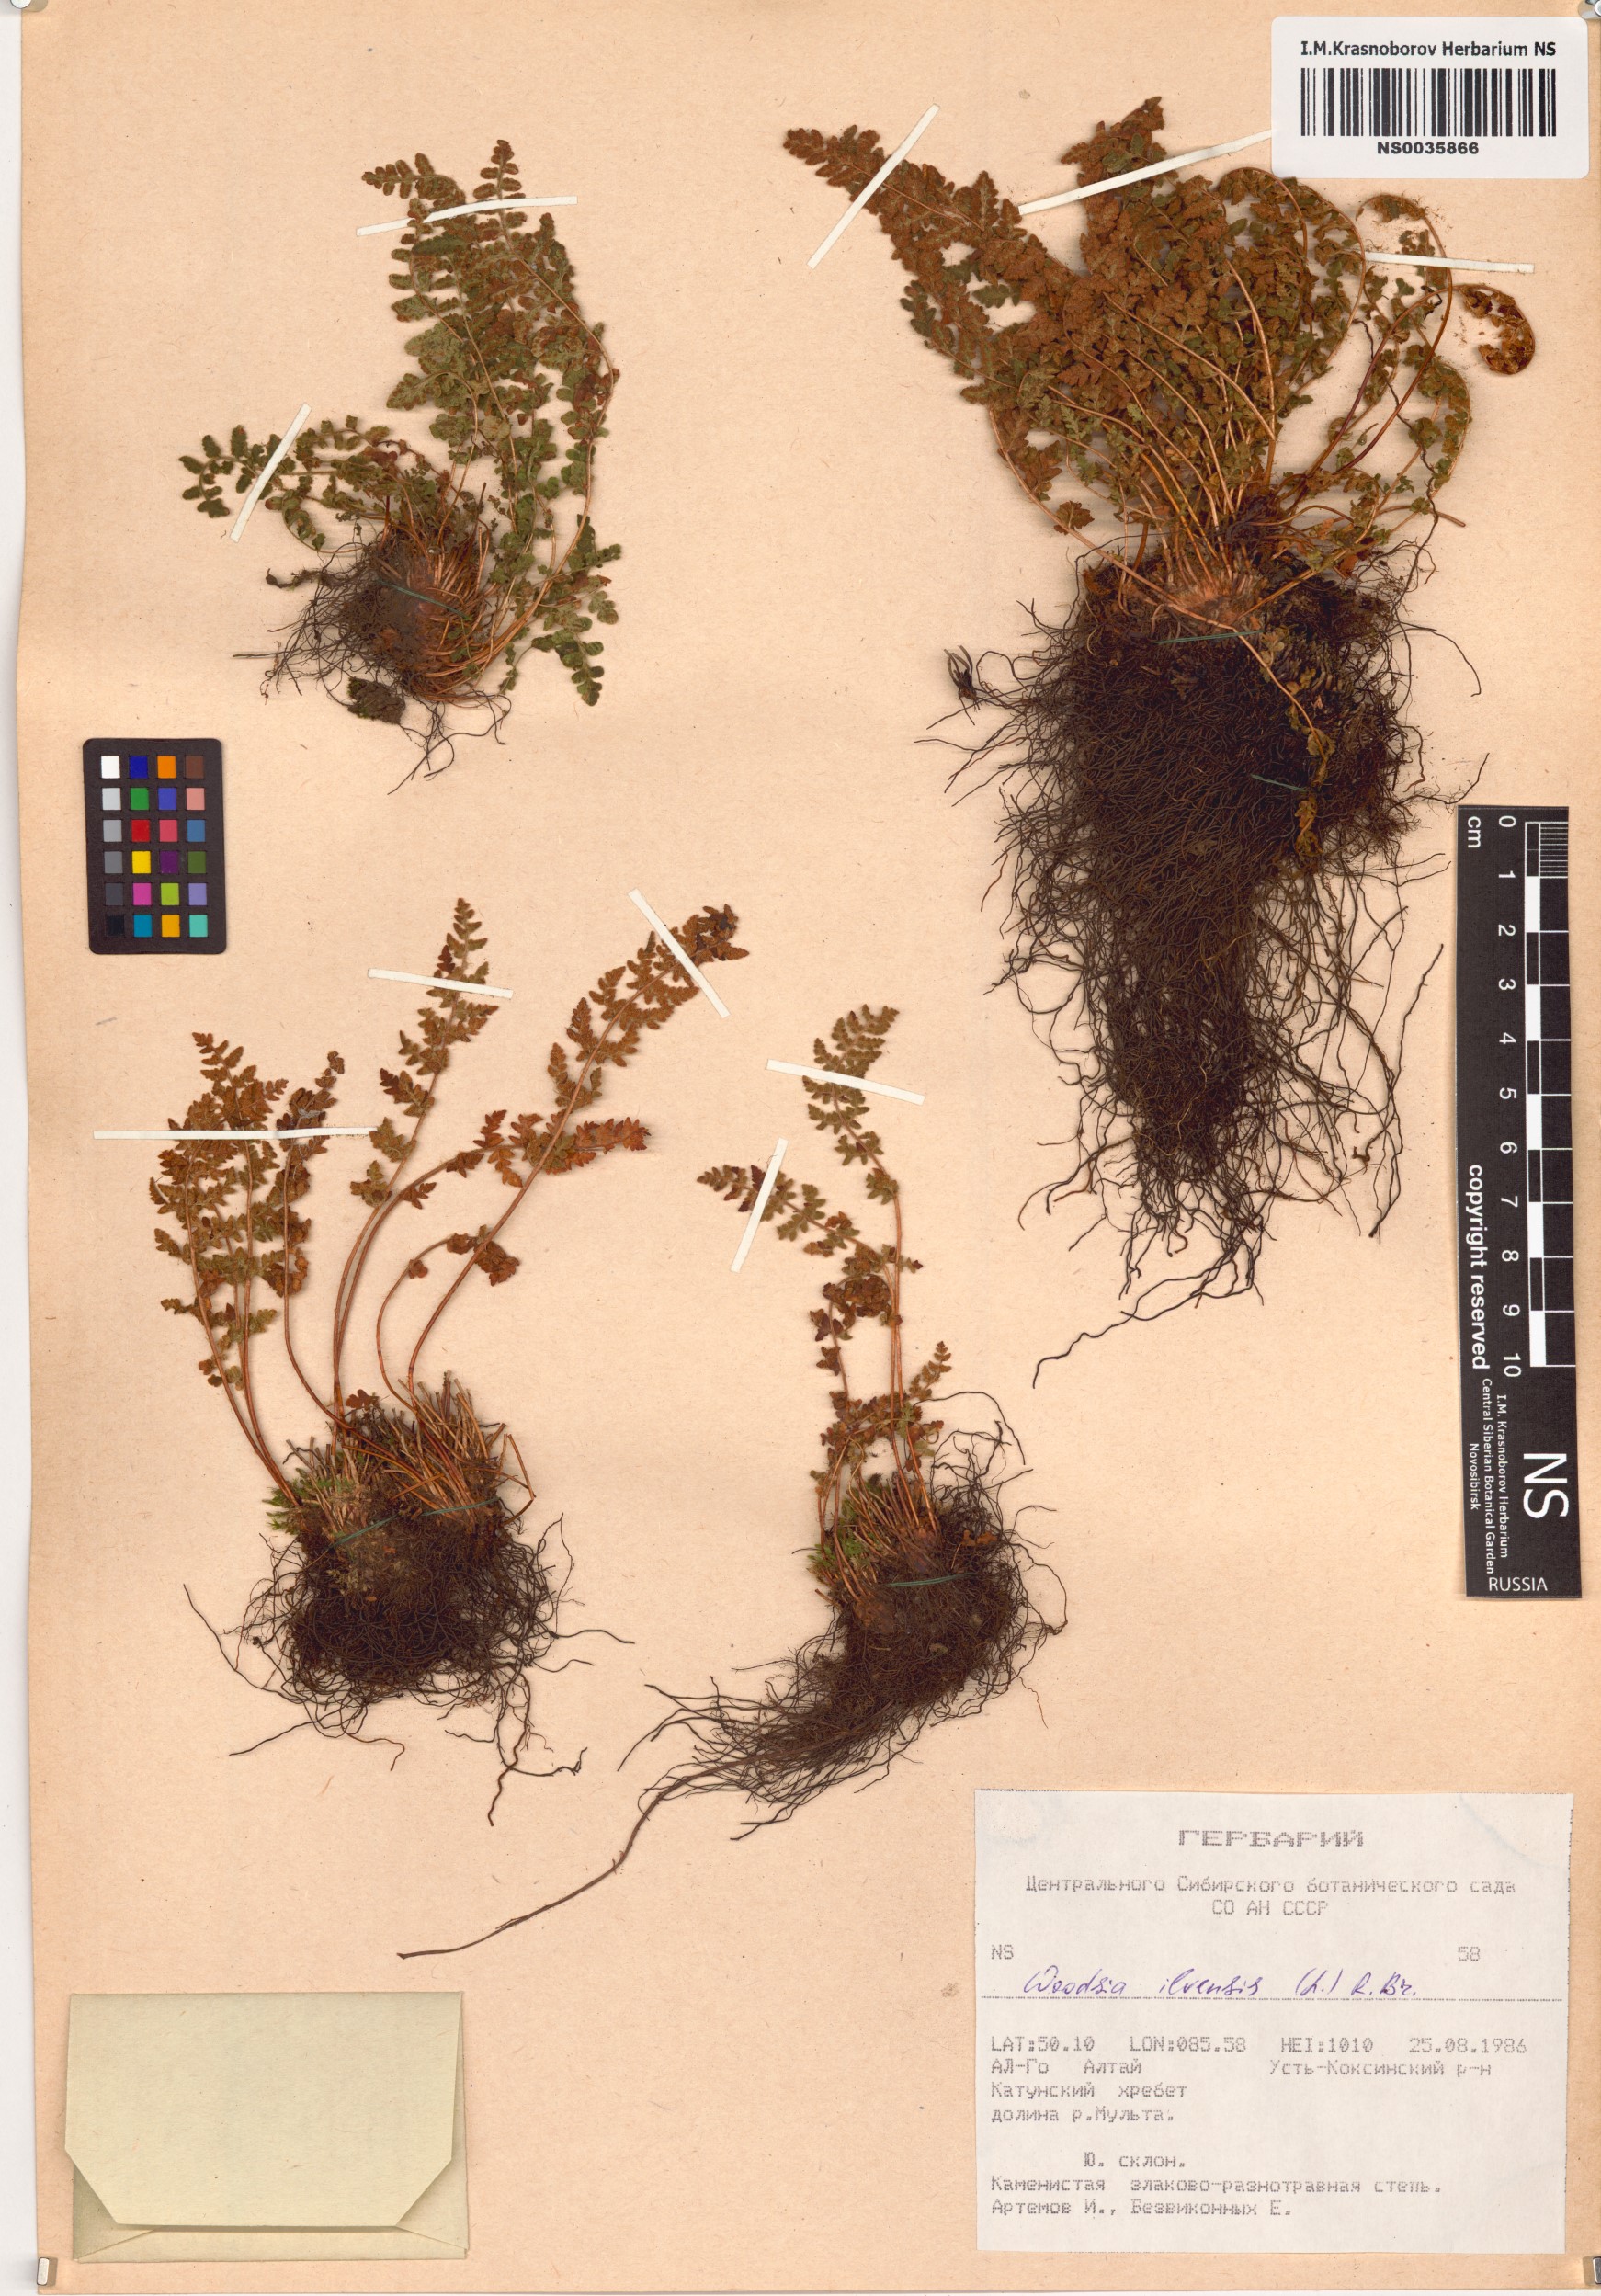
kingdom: Plantae
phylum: Tracheophyta
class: Polypodiopsida
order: Polypodiales
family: Woodsiaceae
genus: Woodsia
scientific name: Woodsia ilvensis
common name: Fragrant woodsia
